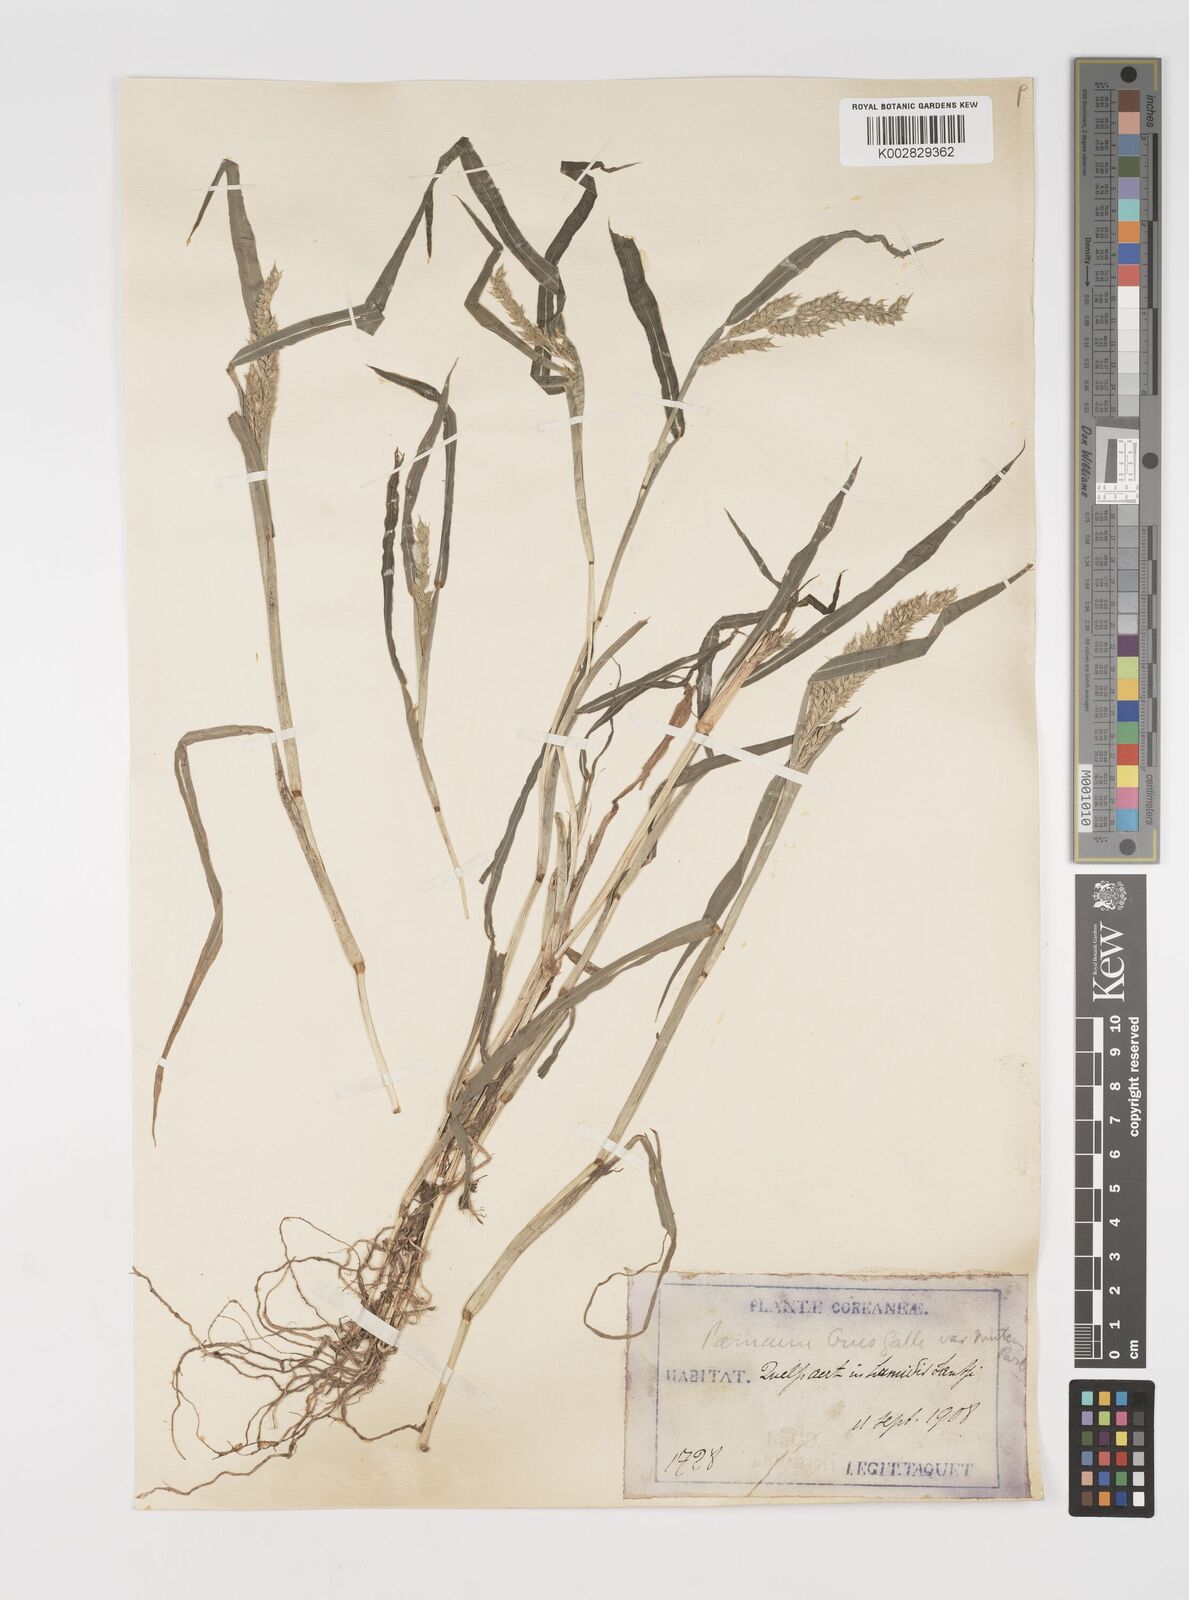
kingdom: Plantae
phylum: Tracheophyta
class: Liliopsida
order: Poales
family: Poaceae
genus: Echinochloa
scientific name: Echinochloa crus-galli
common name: Cockspur
